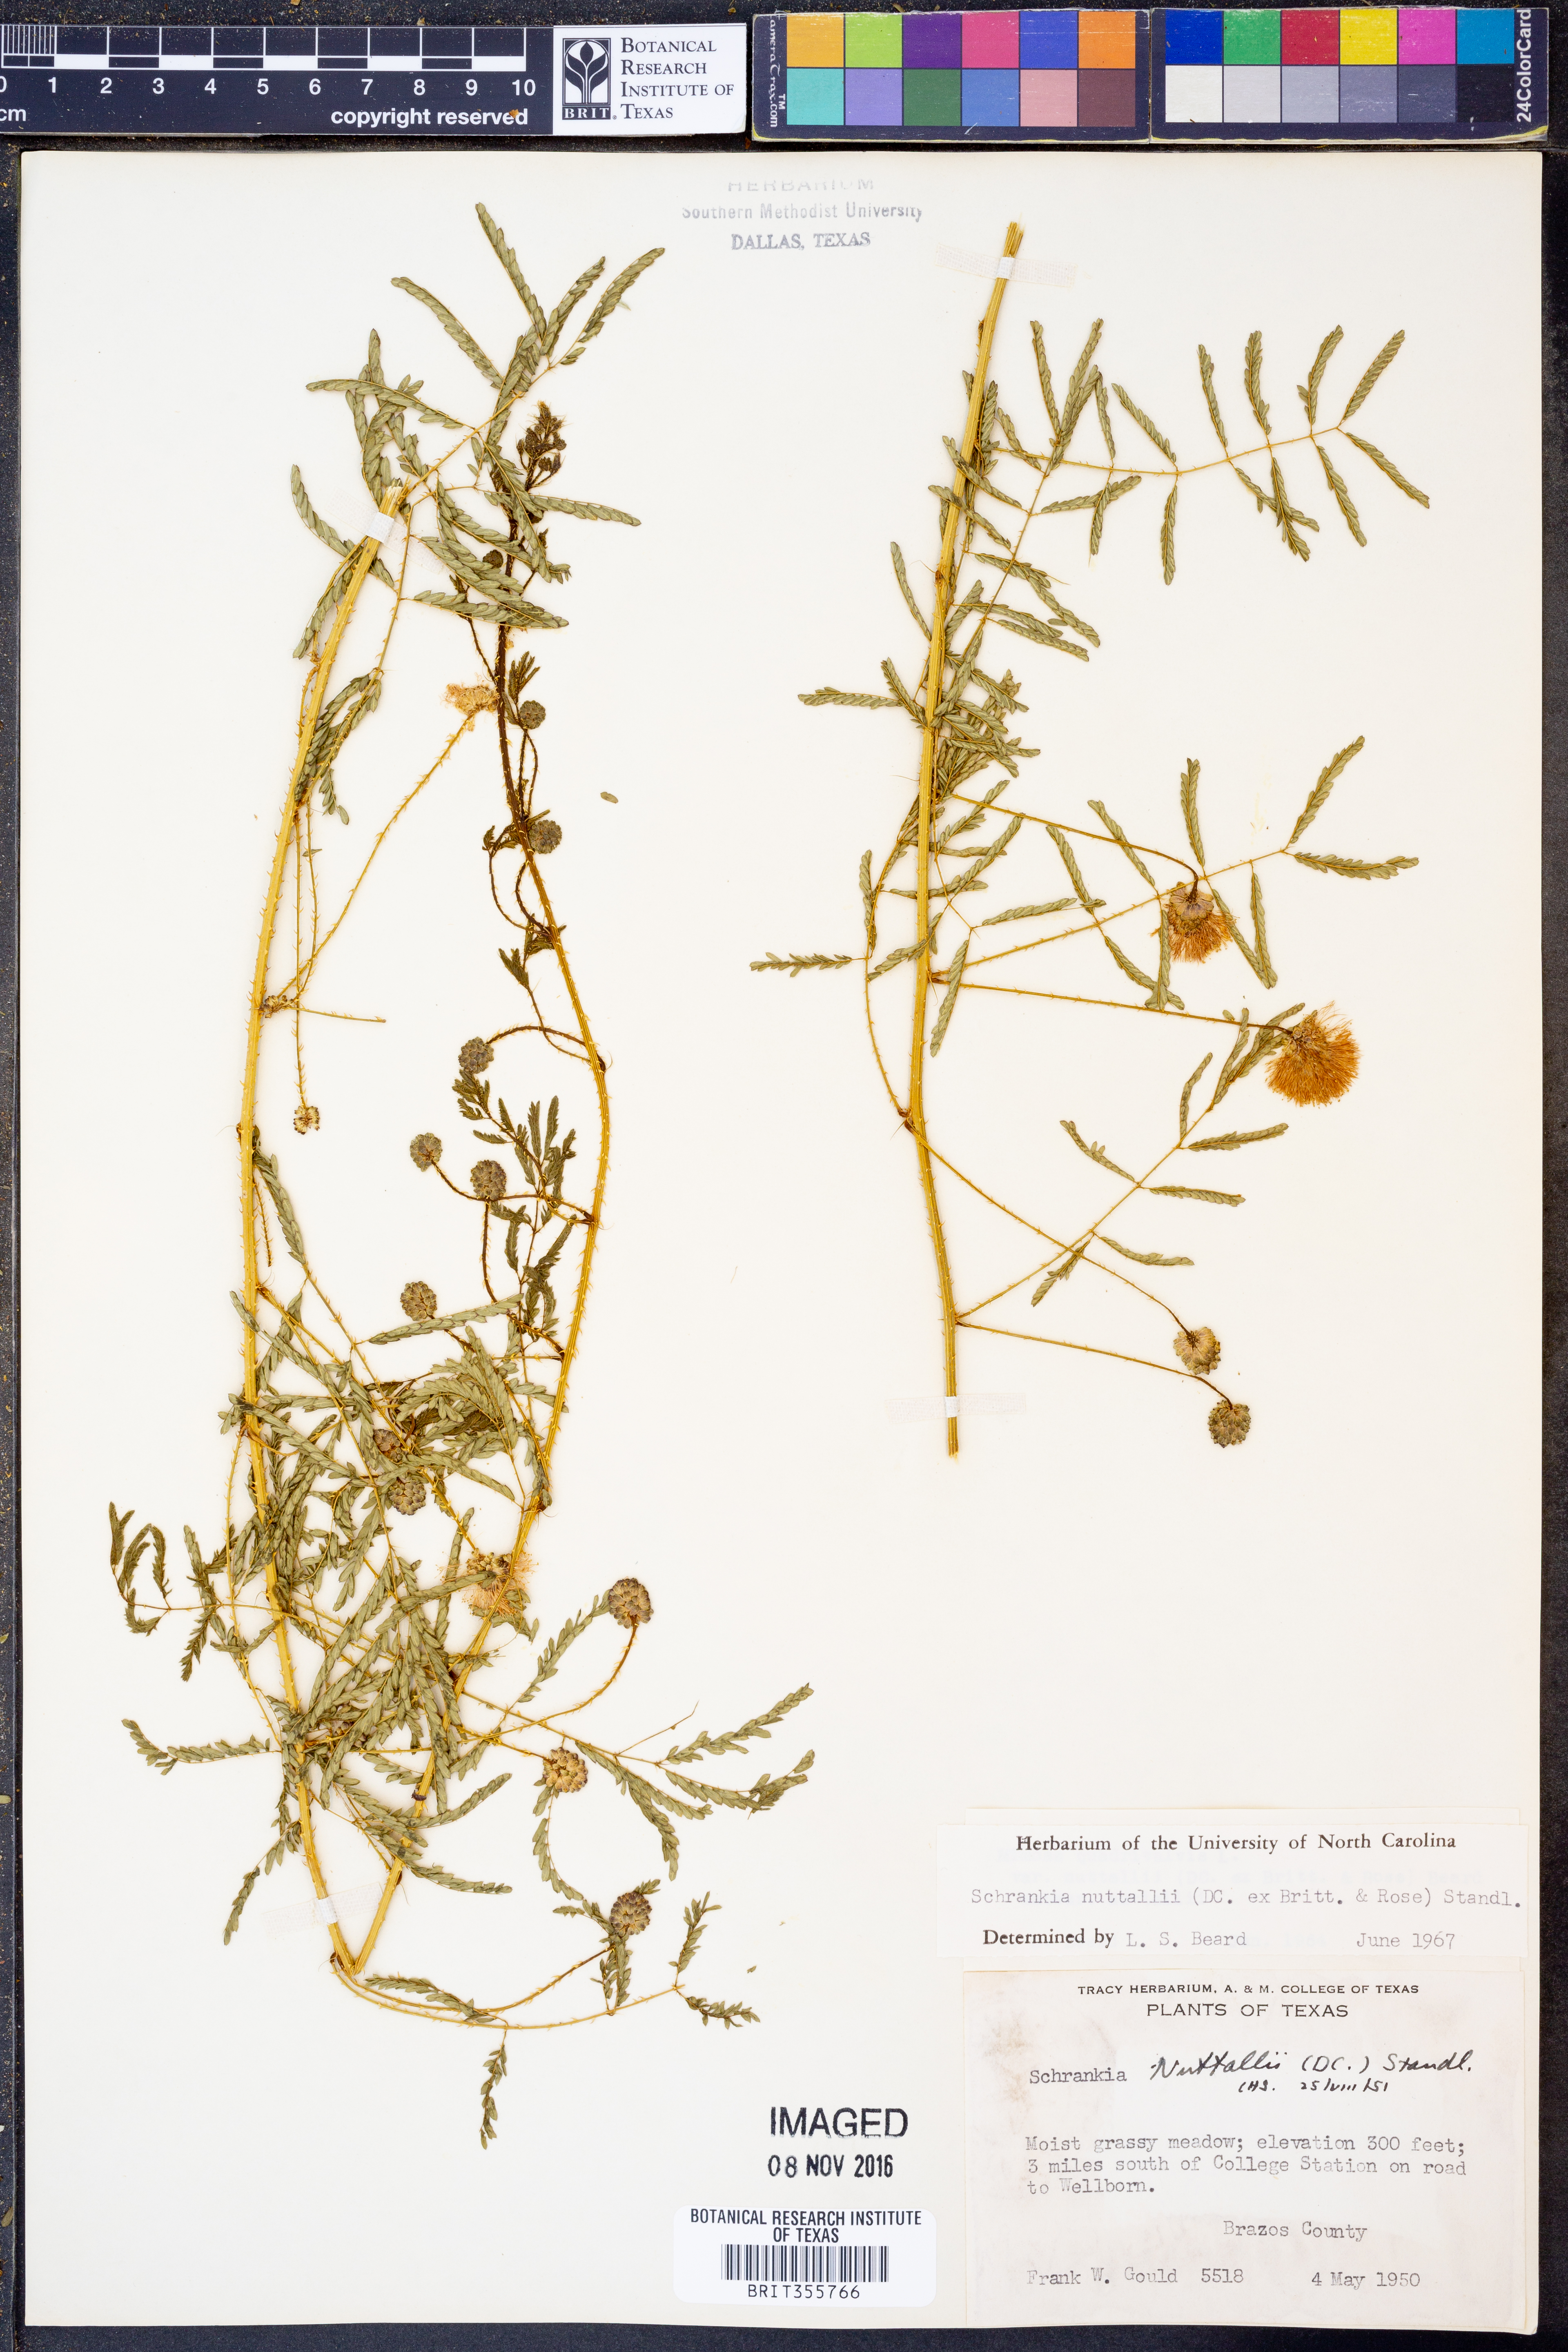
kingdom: Plantae
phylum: Tracheophyta
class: Magnoliopsida
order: Fabales
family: Fabaceae
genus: Mimosa
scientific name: Mimosa quadrivalvis
